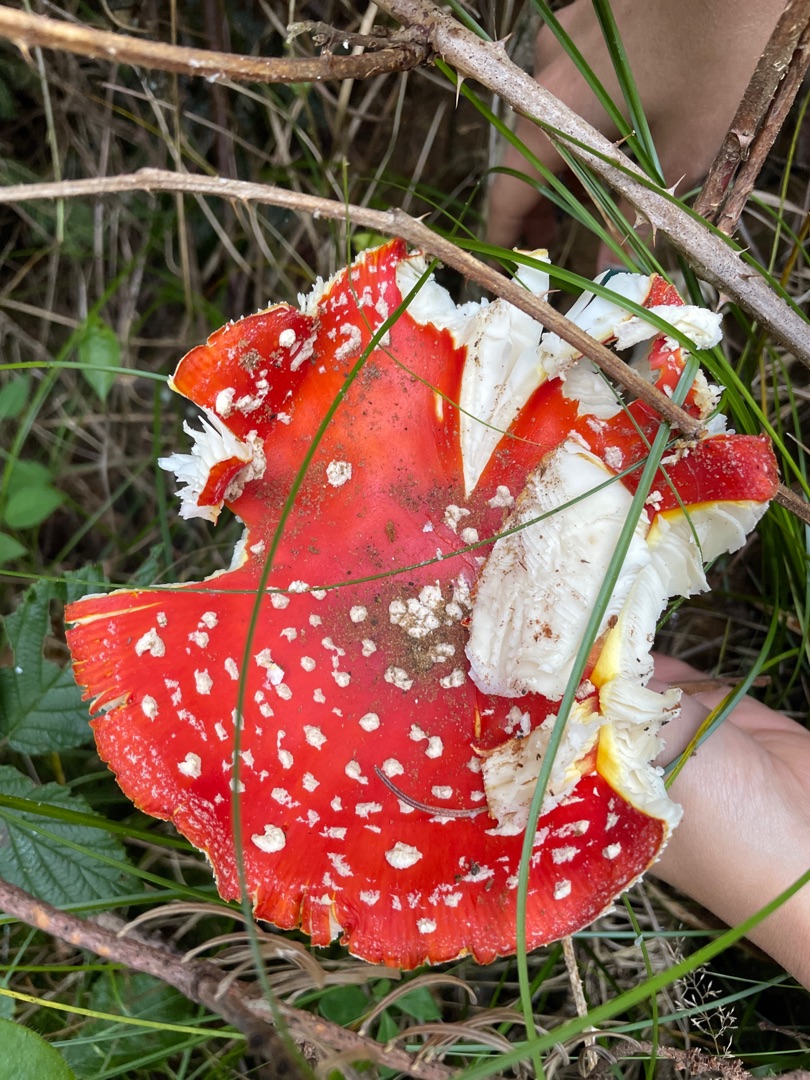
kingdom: Fungi
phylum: Basidiomycota
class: Agaricomycetes
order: Agaricales
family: Amanitaceae
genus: Amanita
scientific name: Amanita muscaria
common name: Rød fluesvamp
